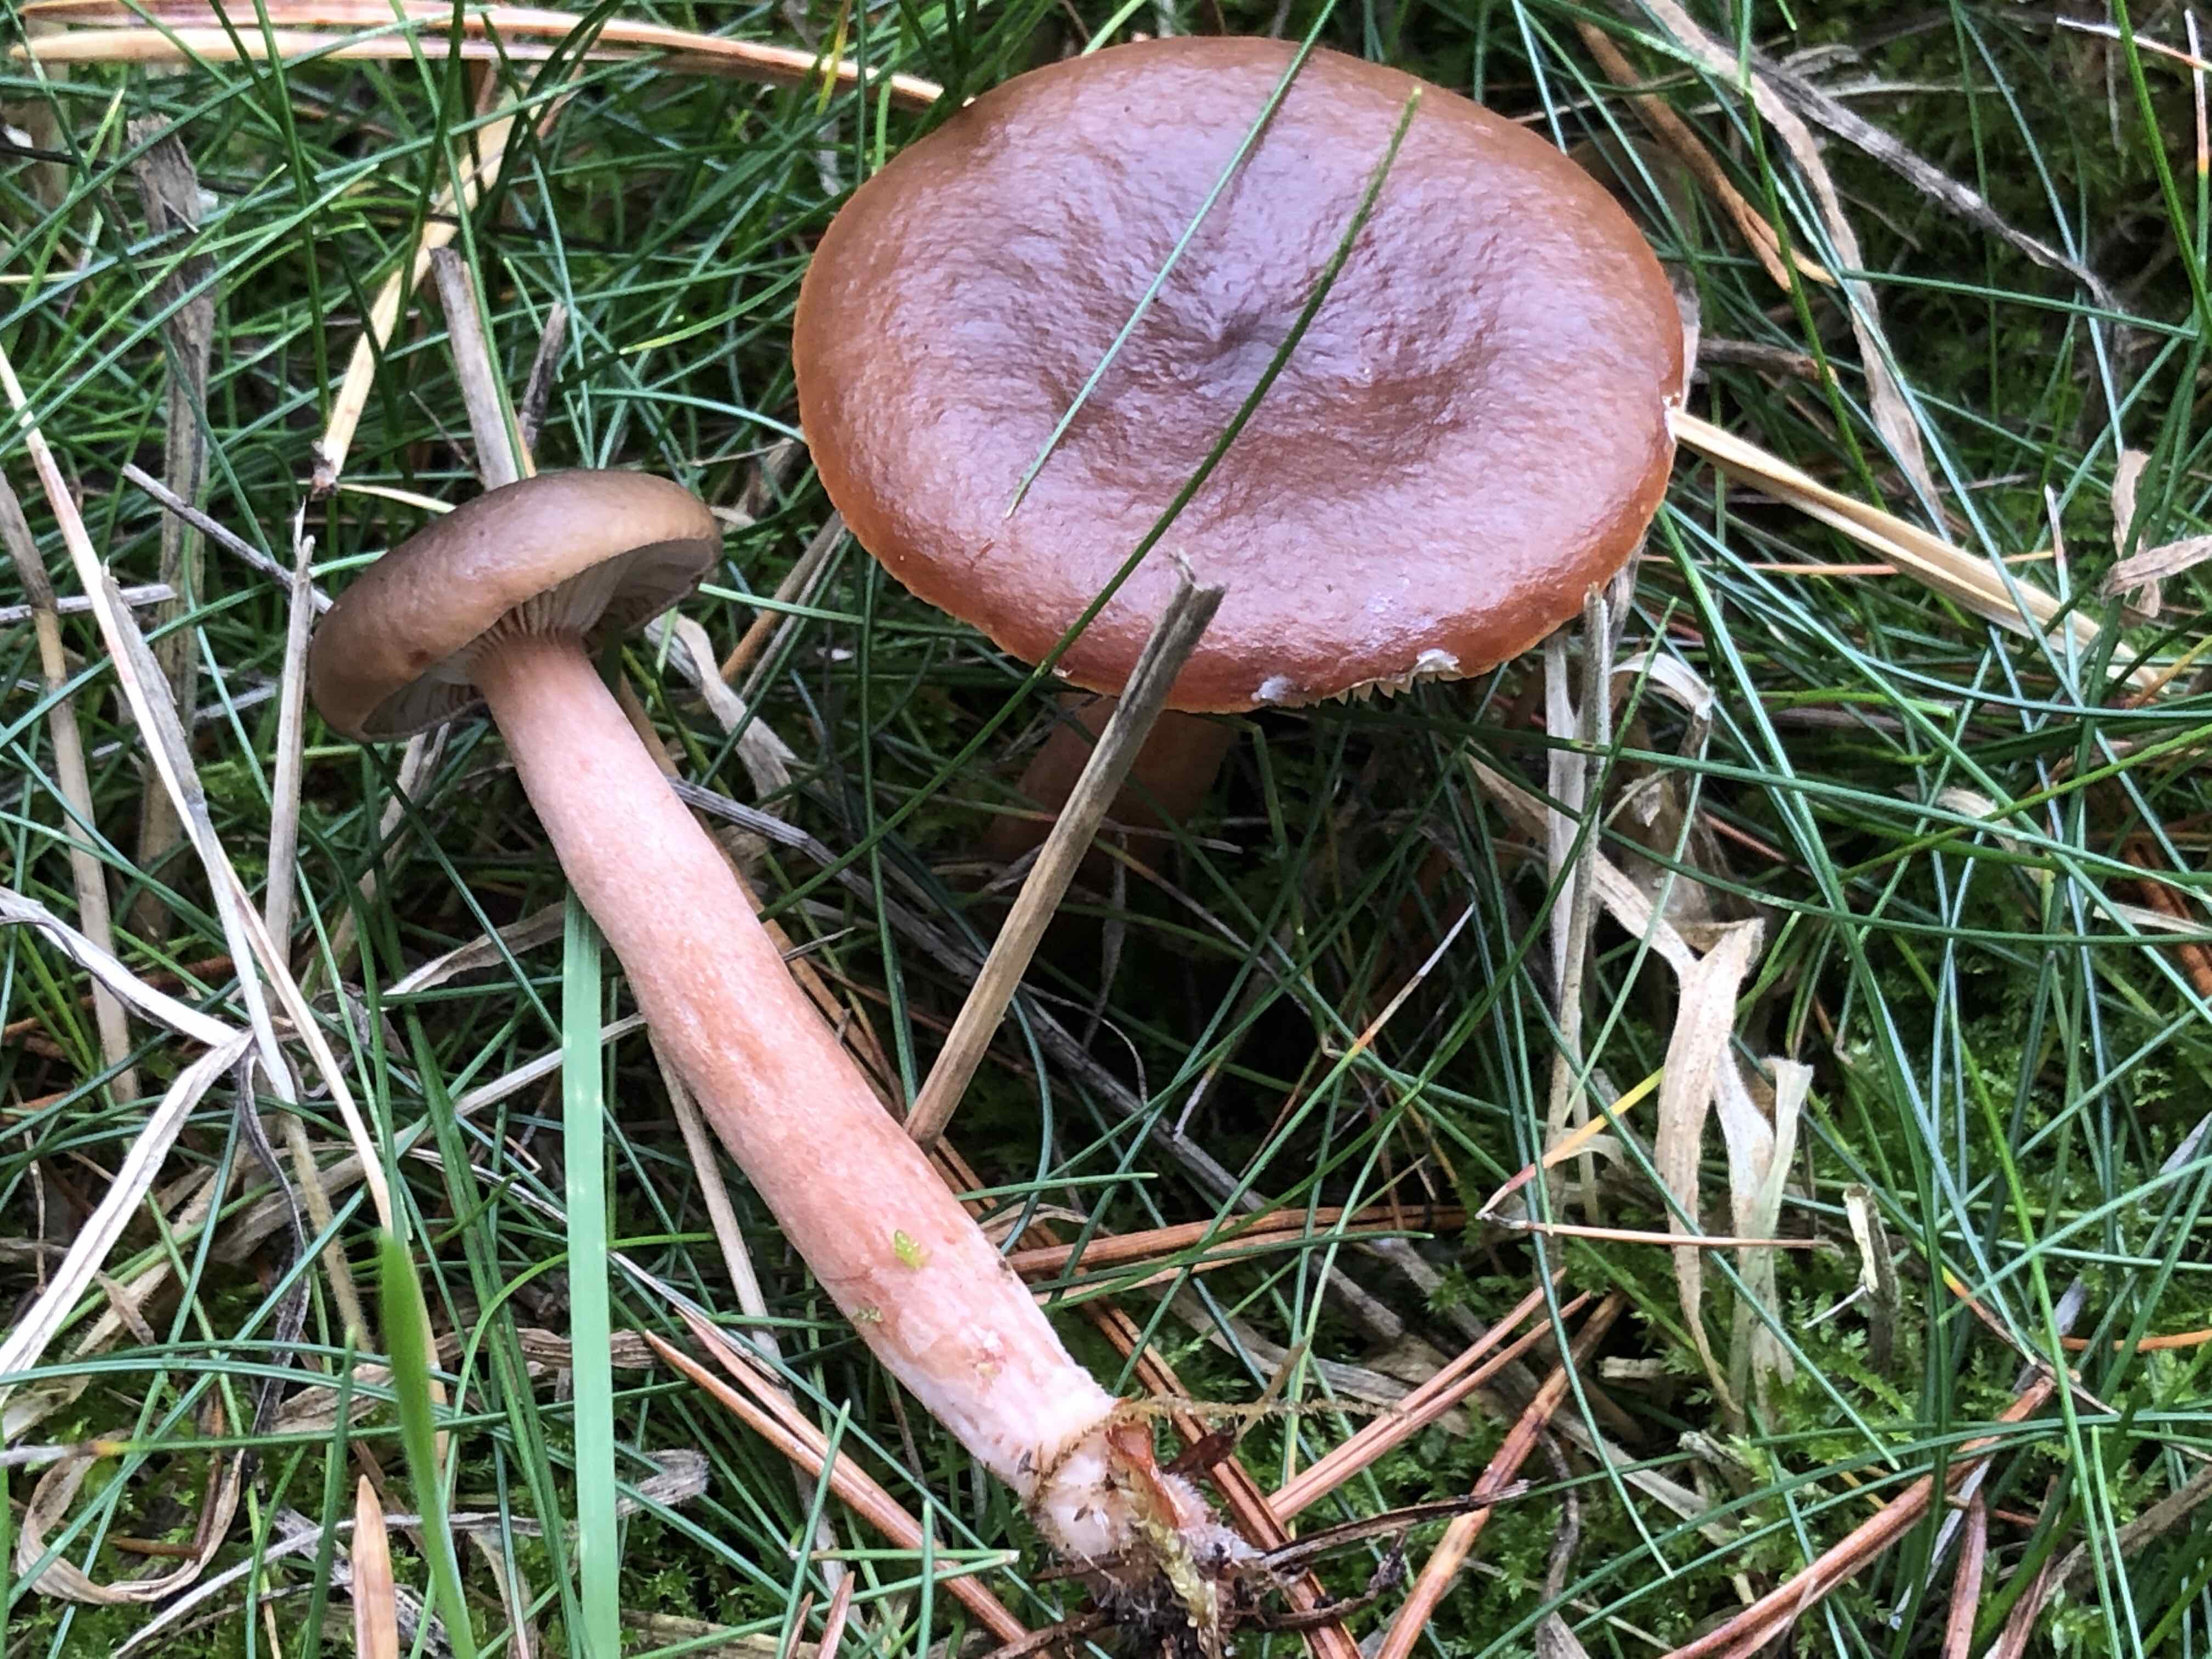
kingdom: Fungi
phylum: Basidiomycota
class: Agaricomycetes
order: Russulales
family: Russulaceae
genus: Lactarius
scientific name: Lactarius hepaticus
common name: leverbrun mælkehat
